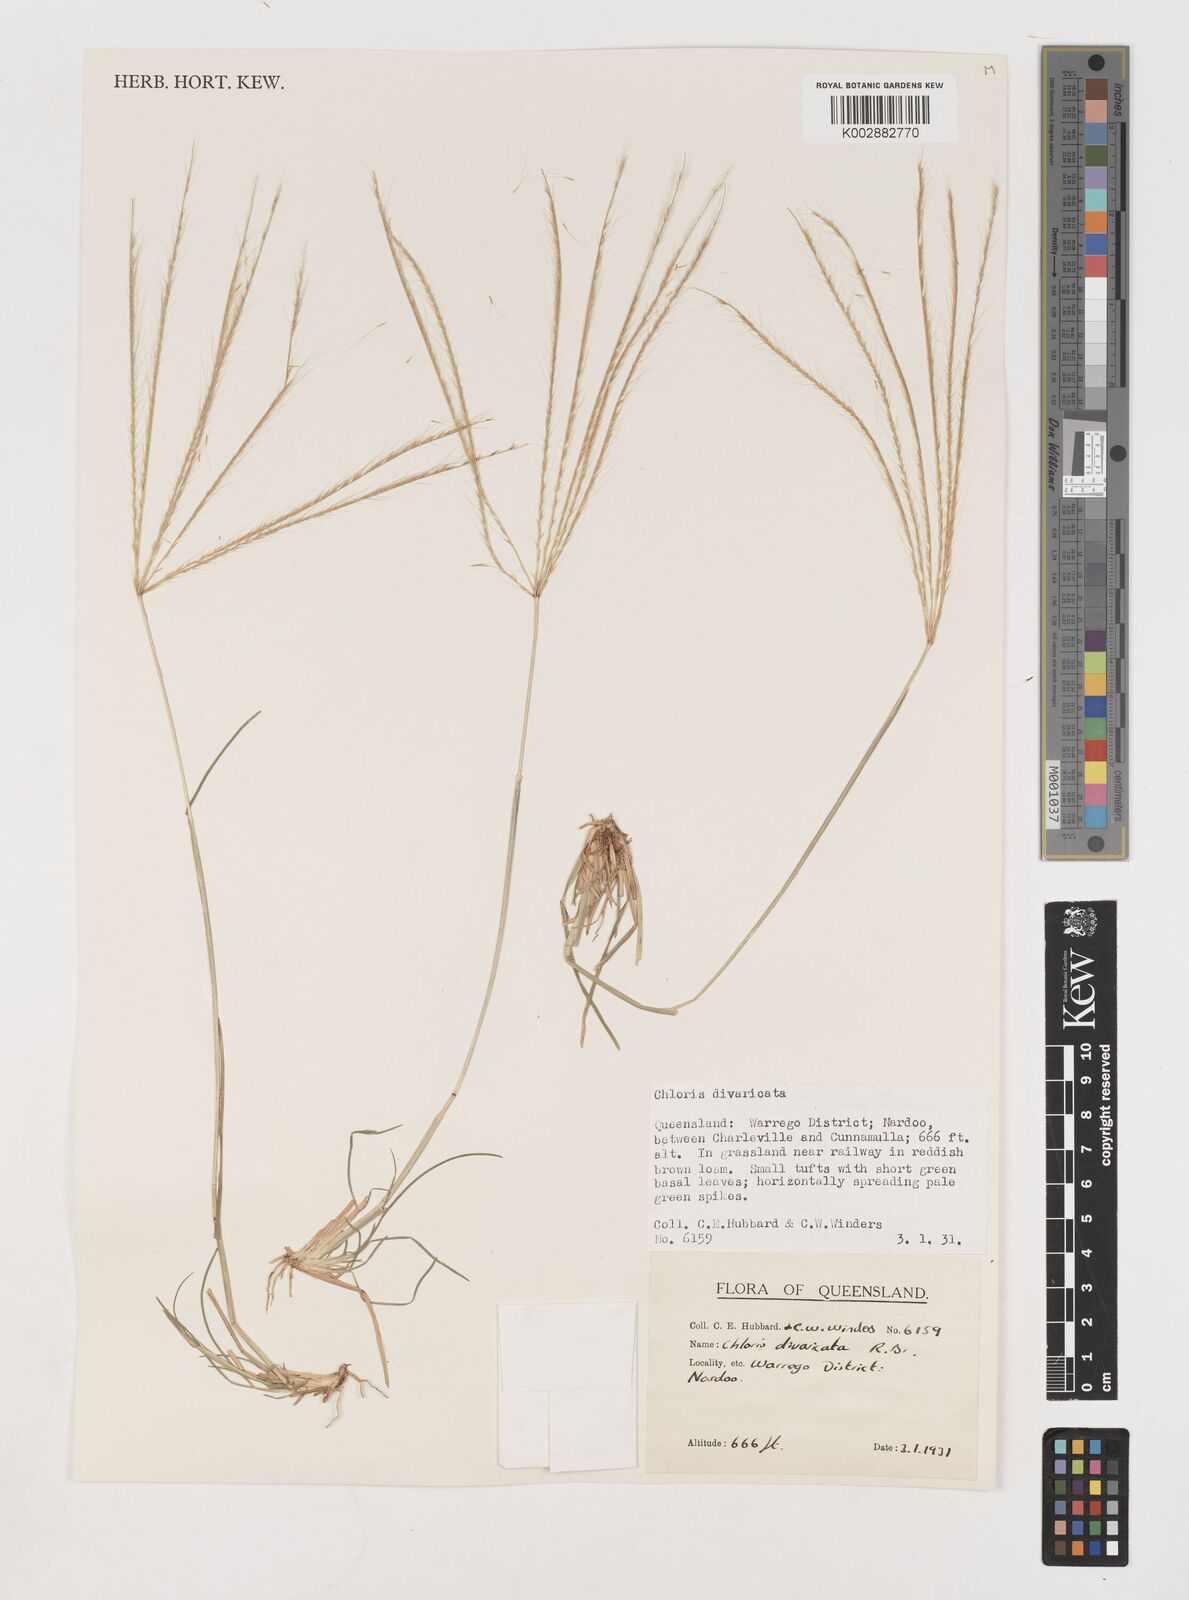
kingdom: Plantae
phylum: Tracheophyta
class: Liliopsida
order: Poales
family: Poaceae
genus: Chloris
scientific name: Chloris divaricata
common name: Spreading windmill grass
